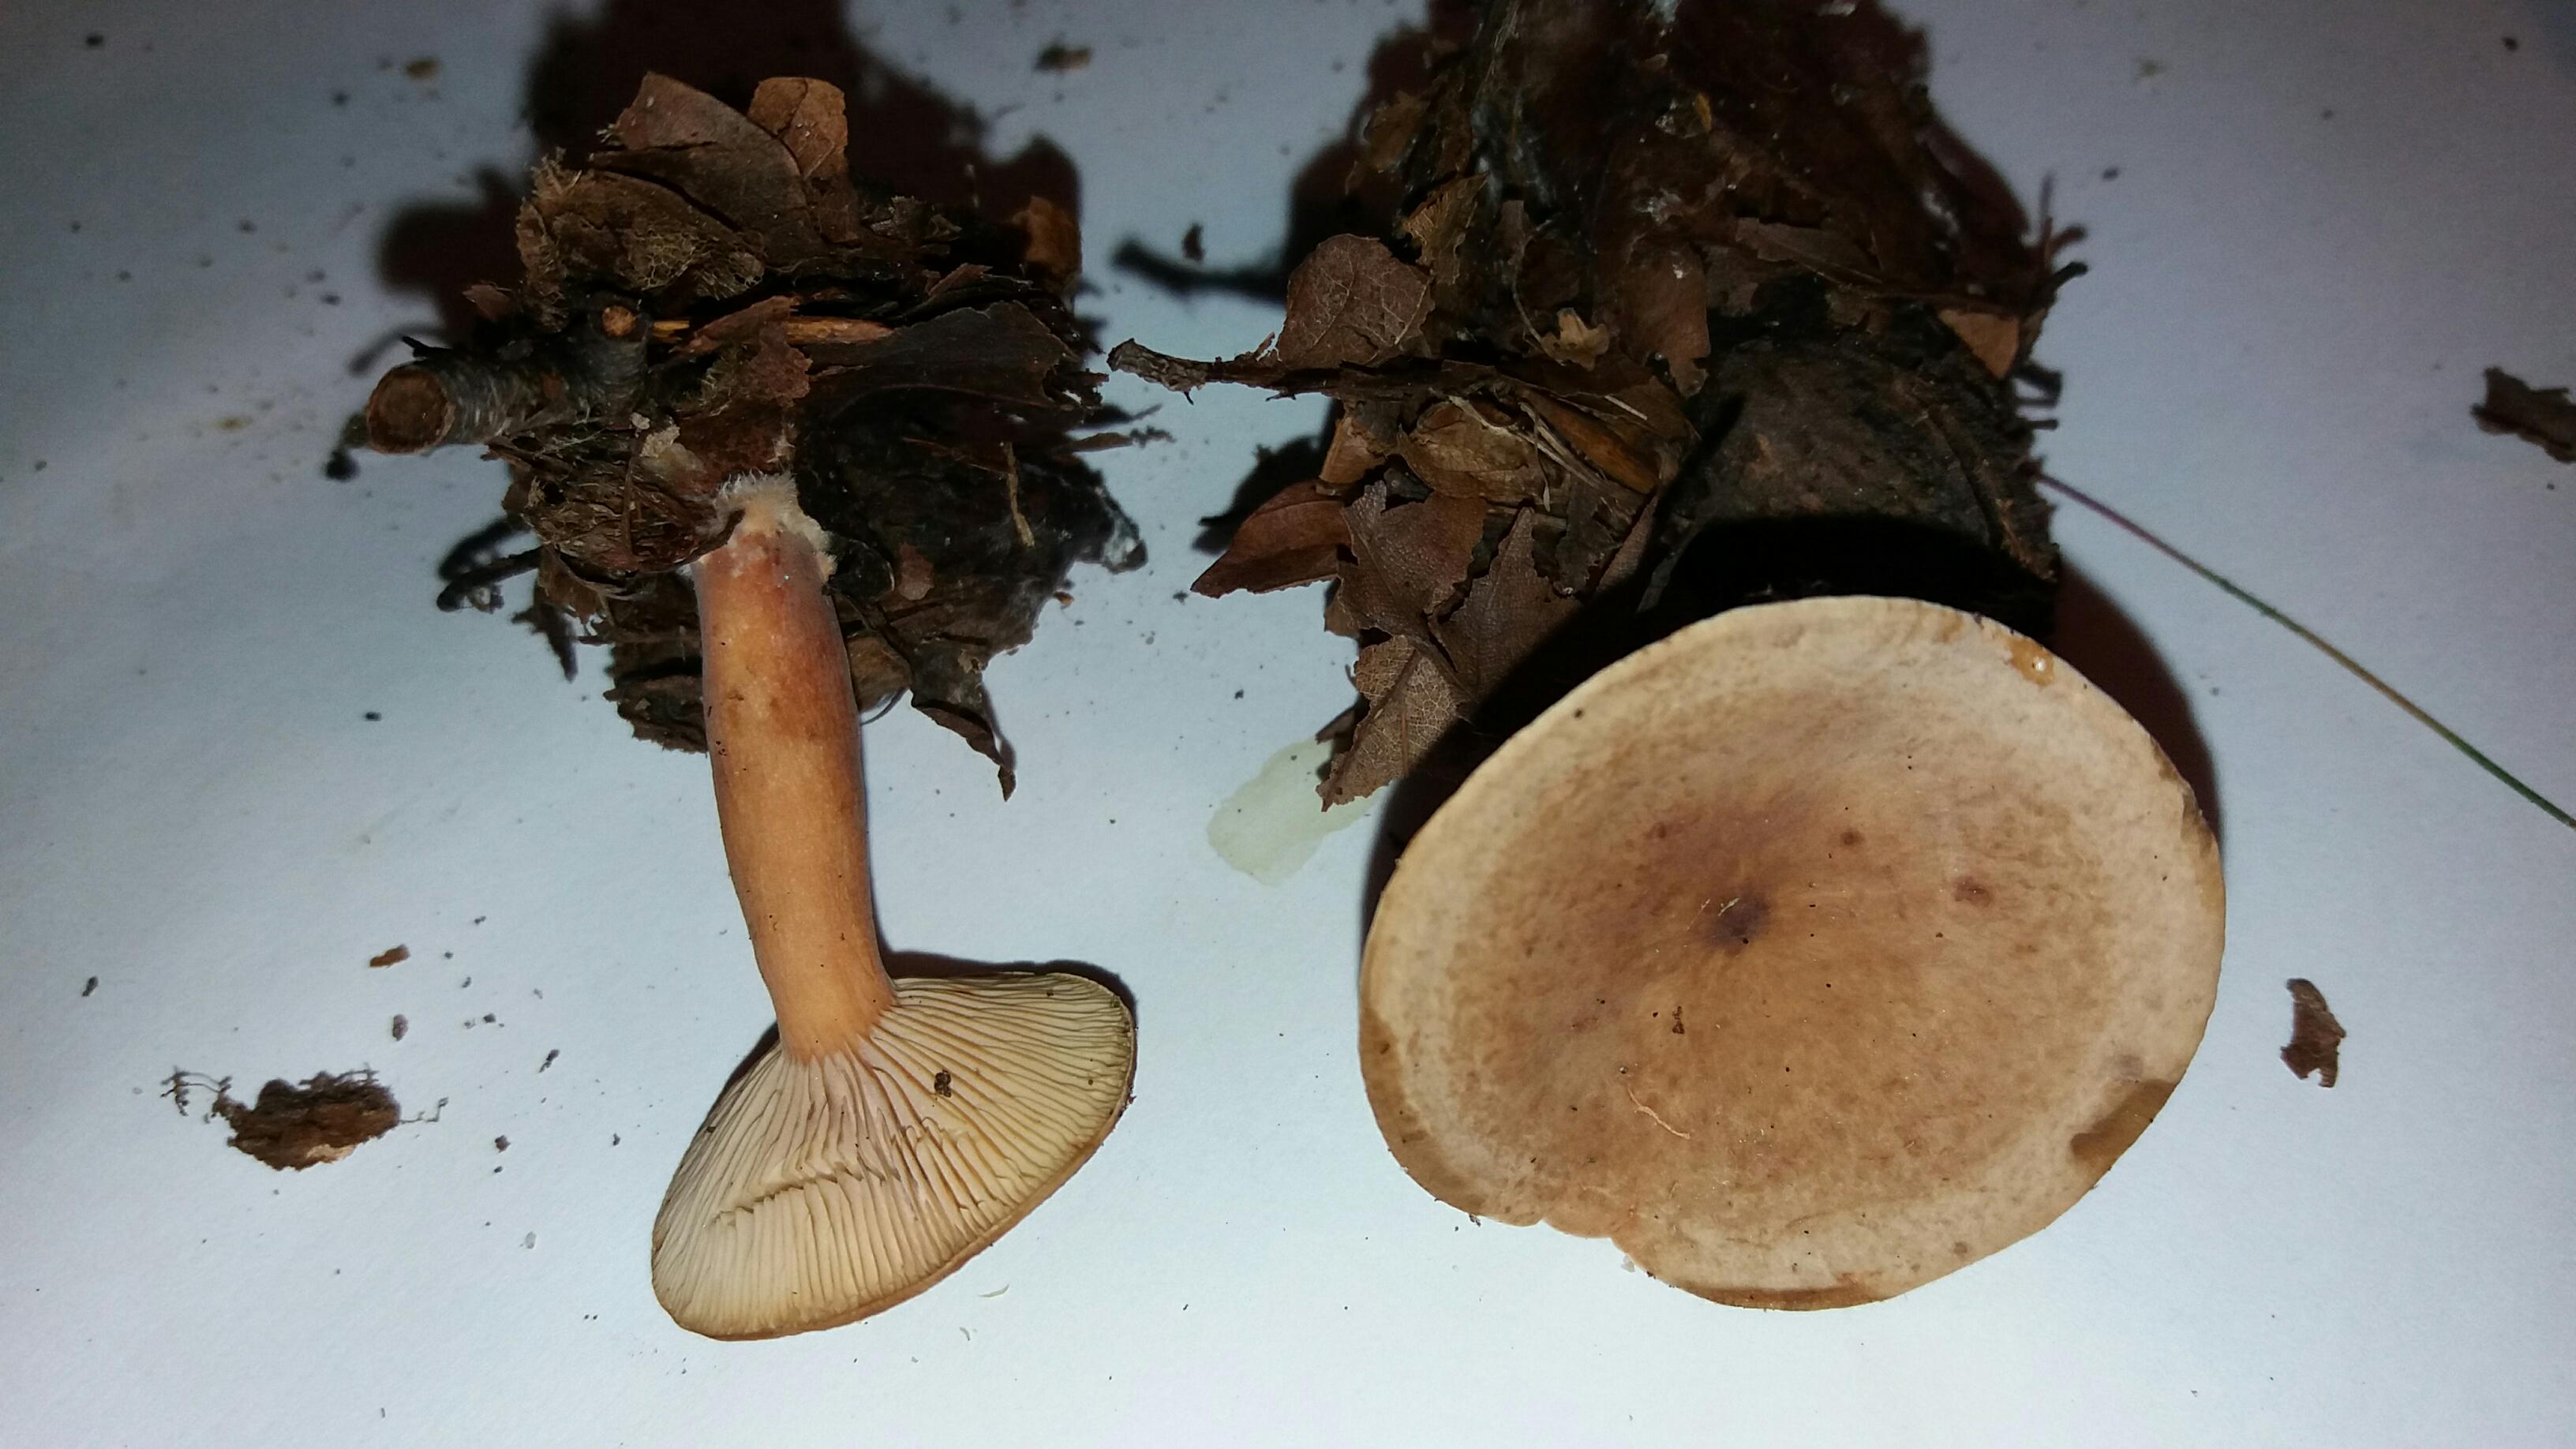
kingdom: Fungi
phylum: Basidiomycota
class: Agaricomycetes
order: Russulales
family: Russulaceae
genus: Lactarius
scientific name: Lactarius subdulcis
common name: sødlig mælkehat
